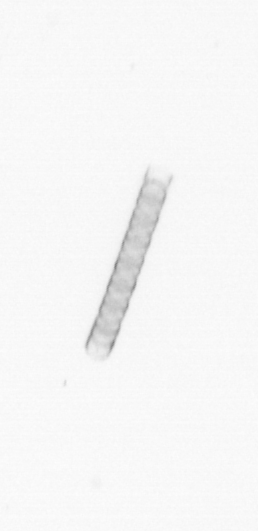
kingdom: Chromista
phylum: Ochrophyta
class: Bacillariophyceae
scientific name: Bacillariophyceae
